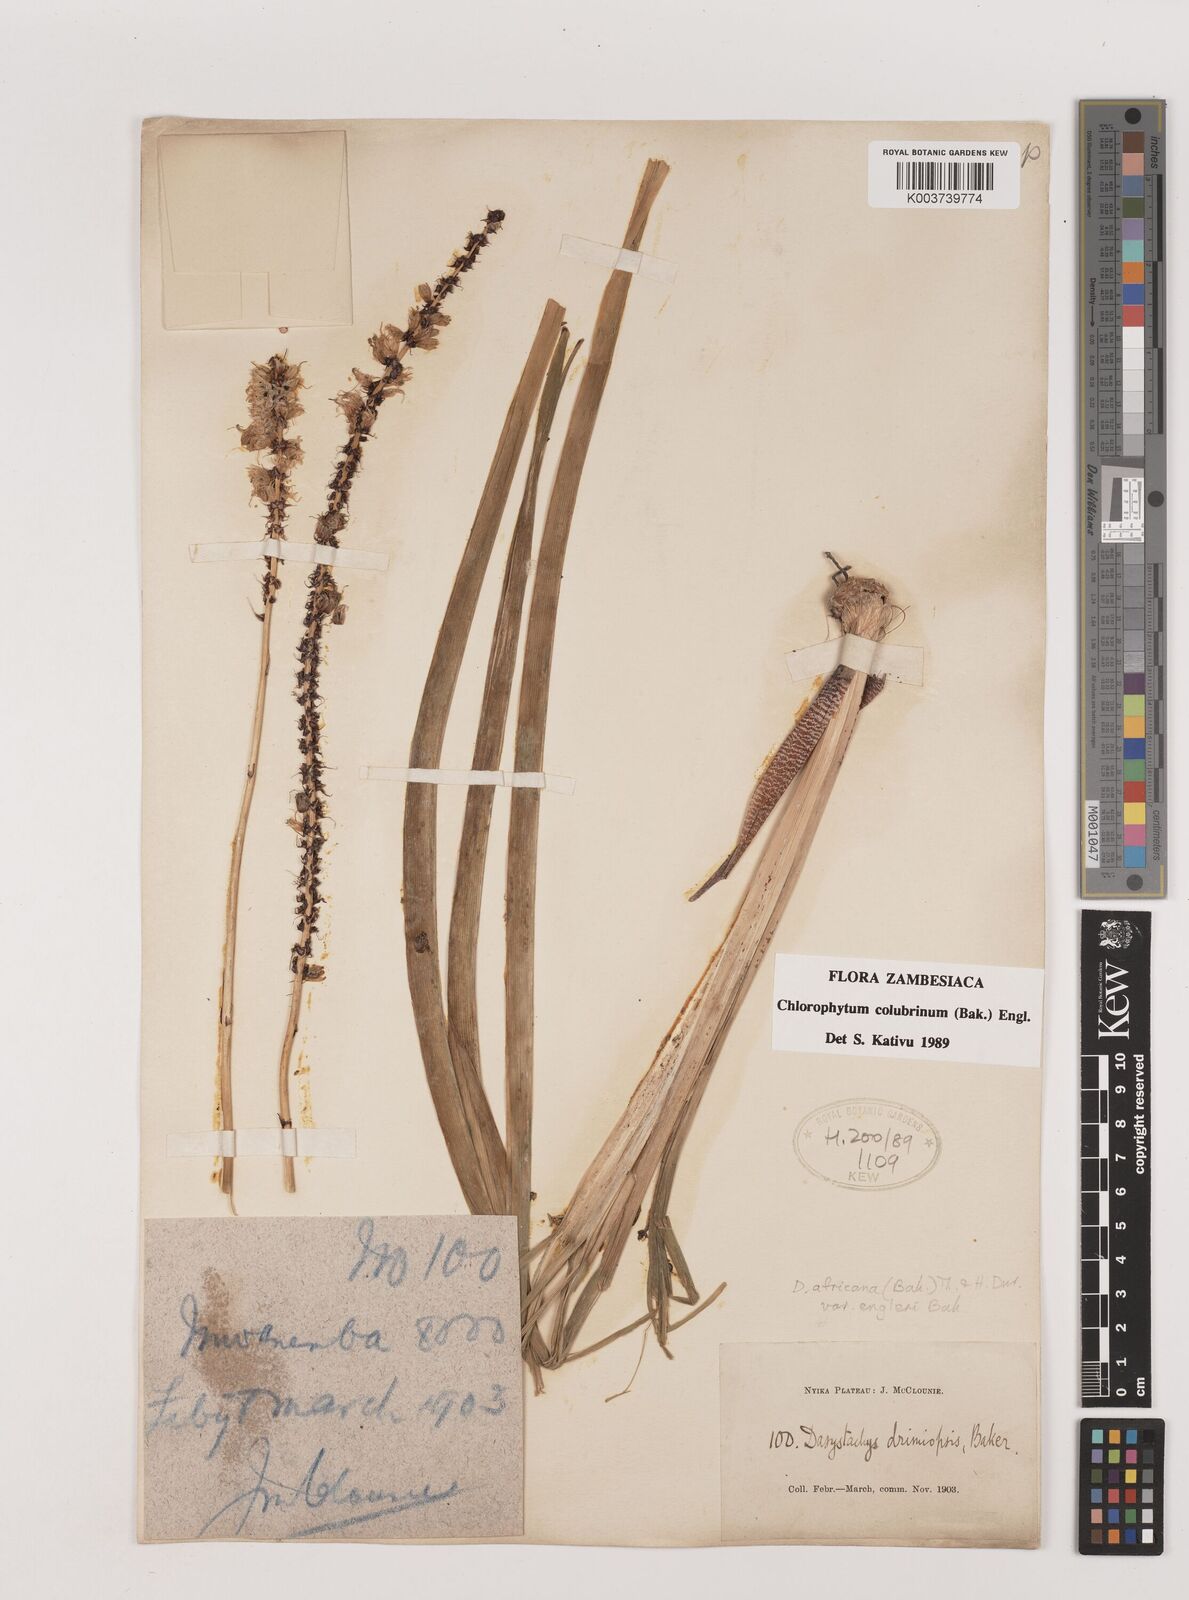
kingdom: Plantae
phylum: Tracheophyta
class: Liliopsida
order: Asparagales
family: Asparagaceae
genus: Chlorophytum
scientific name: Chlorophytum colubrinum
